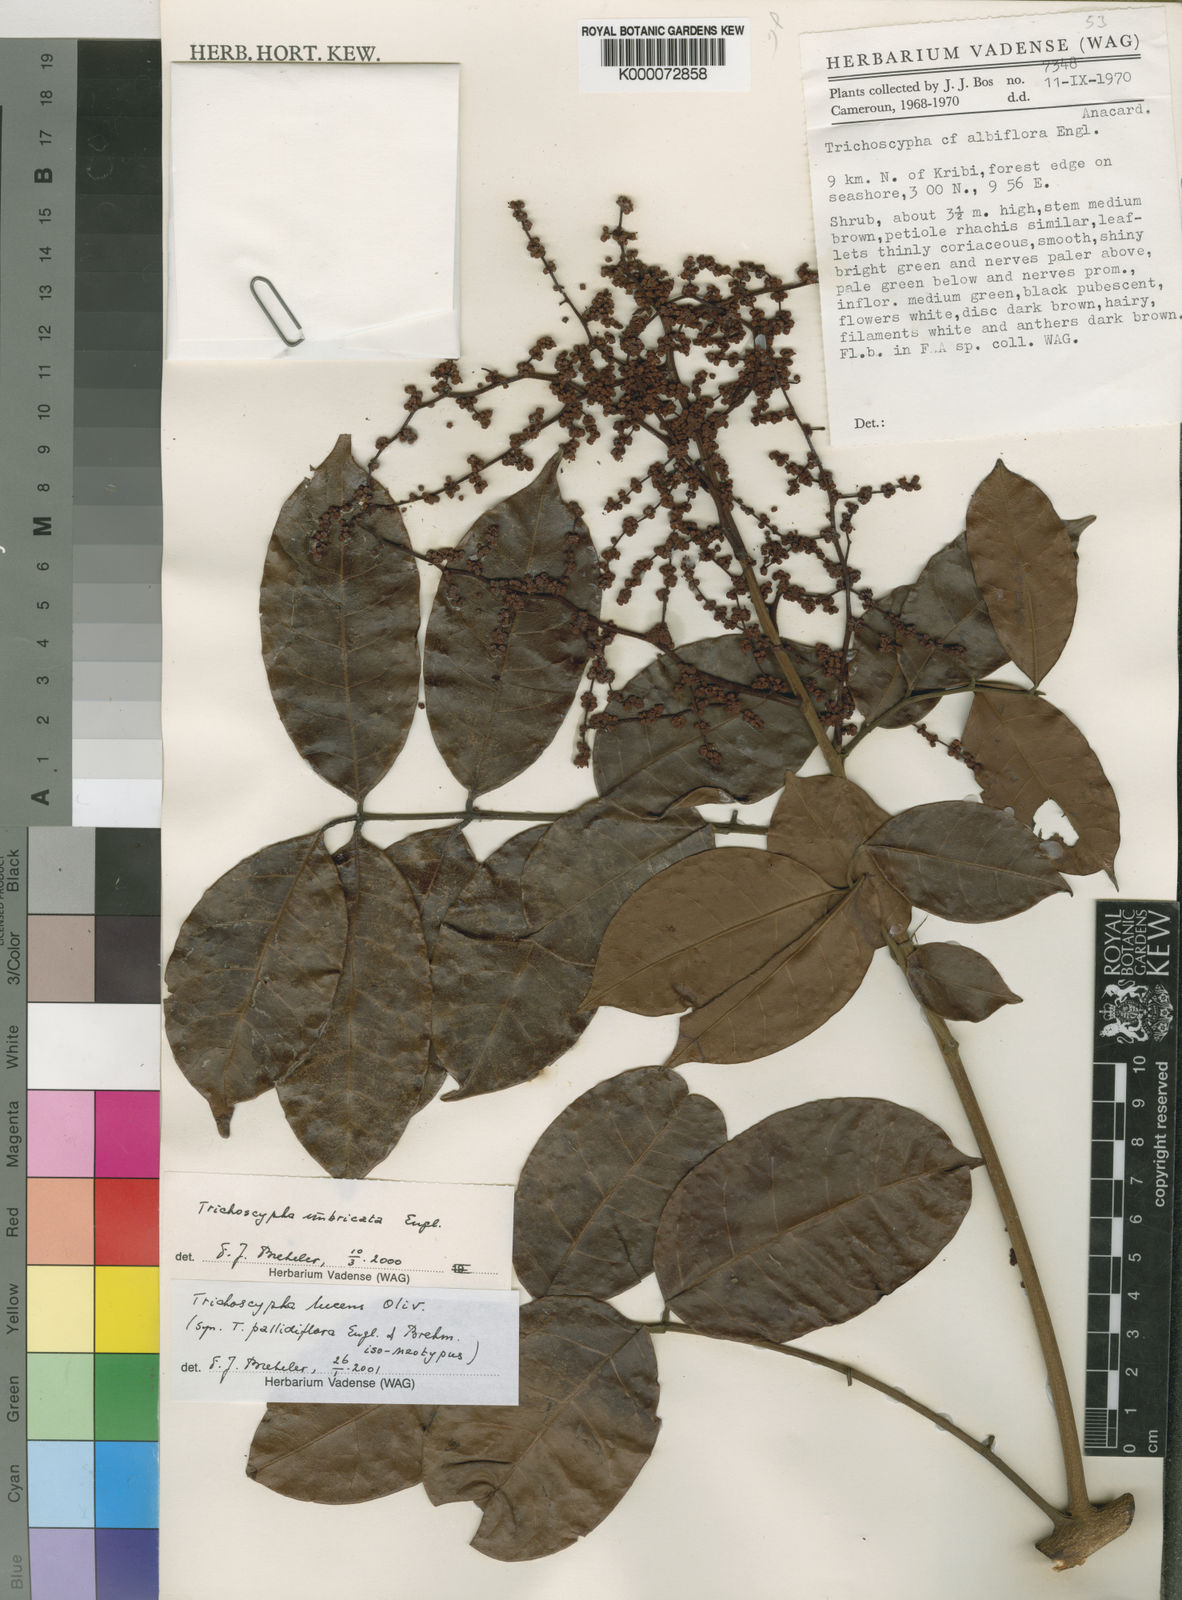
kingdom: Plantae
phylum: Tracheophyta
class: Magnoliopsida
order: Sapindales
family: Anacardiaceae
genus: Trichoscypha
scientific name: Trichoscypha lucens
